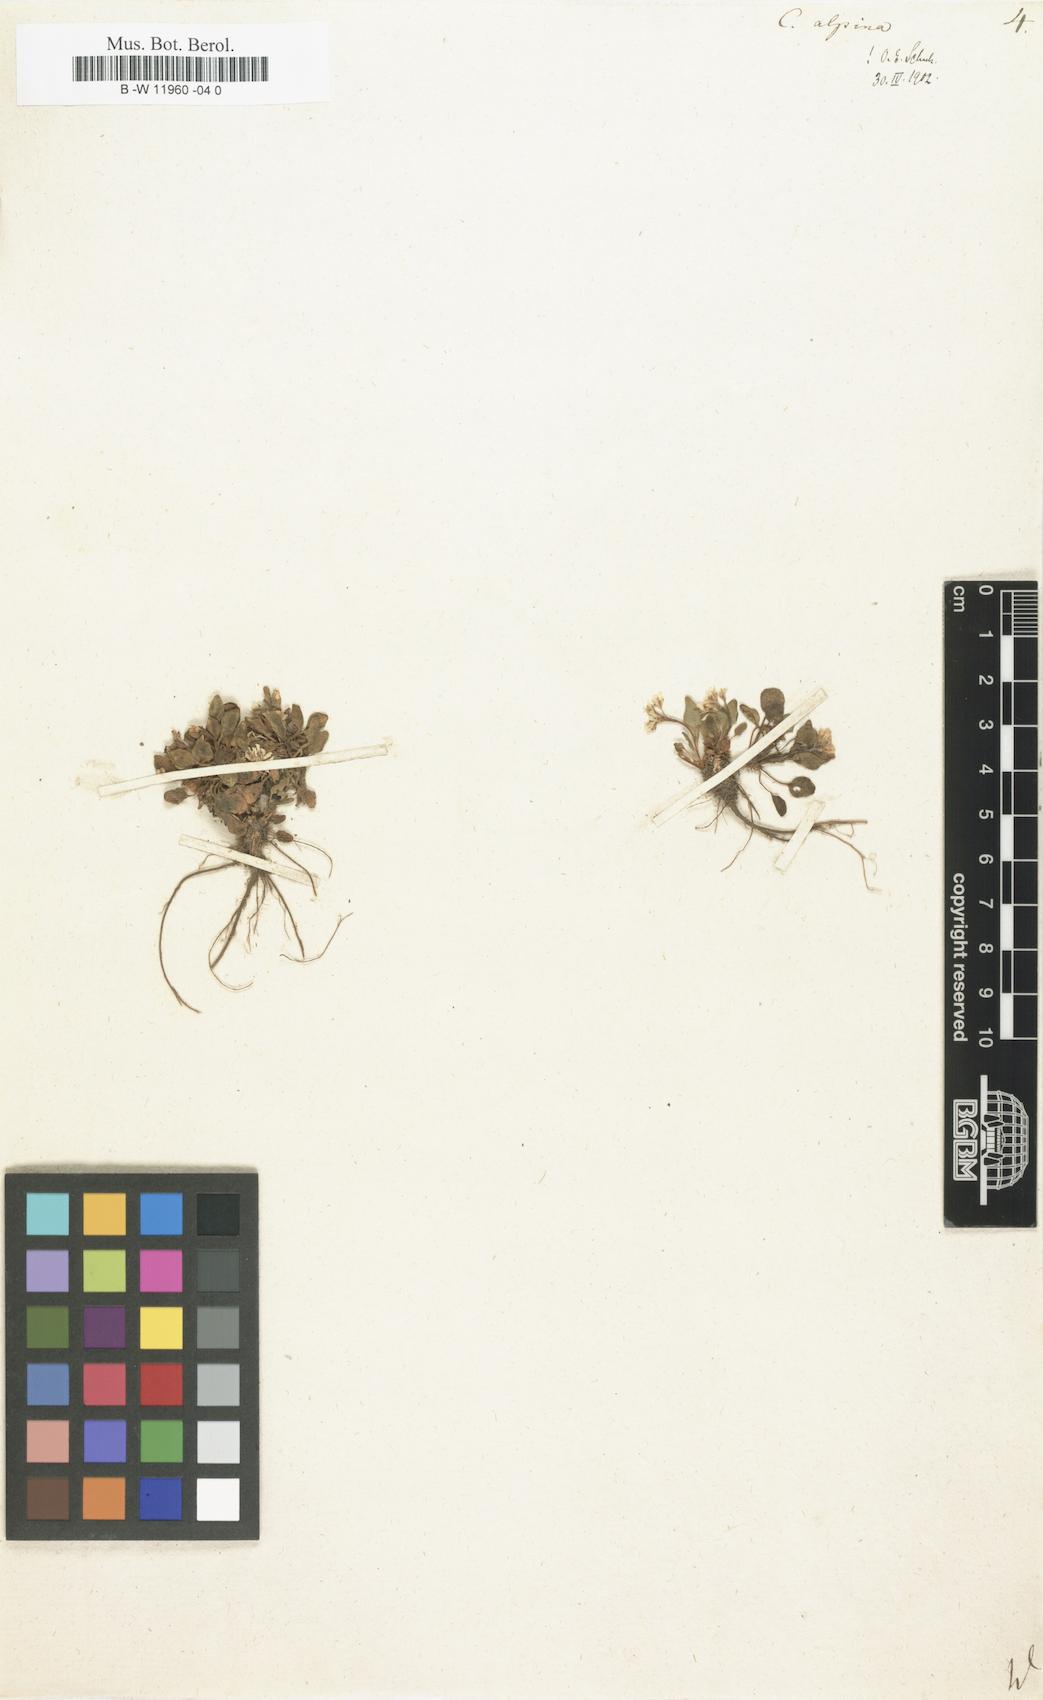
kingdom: Plantae
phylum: Tracheophyta
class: Magnoliopsida
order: Brassicales
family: Brassicaceae
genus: Cardamine
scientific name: Cardamine bellidifolia
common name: Alpine bittercress
